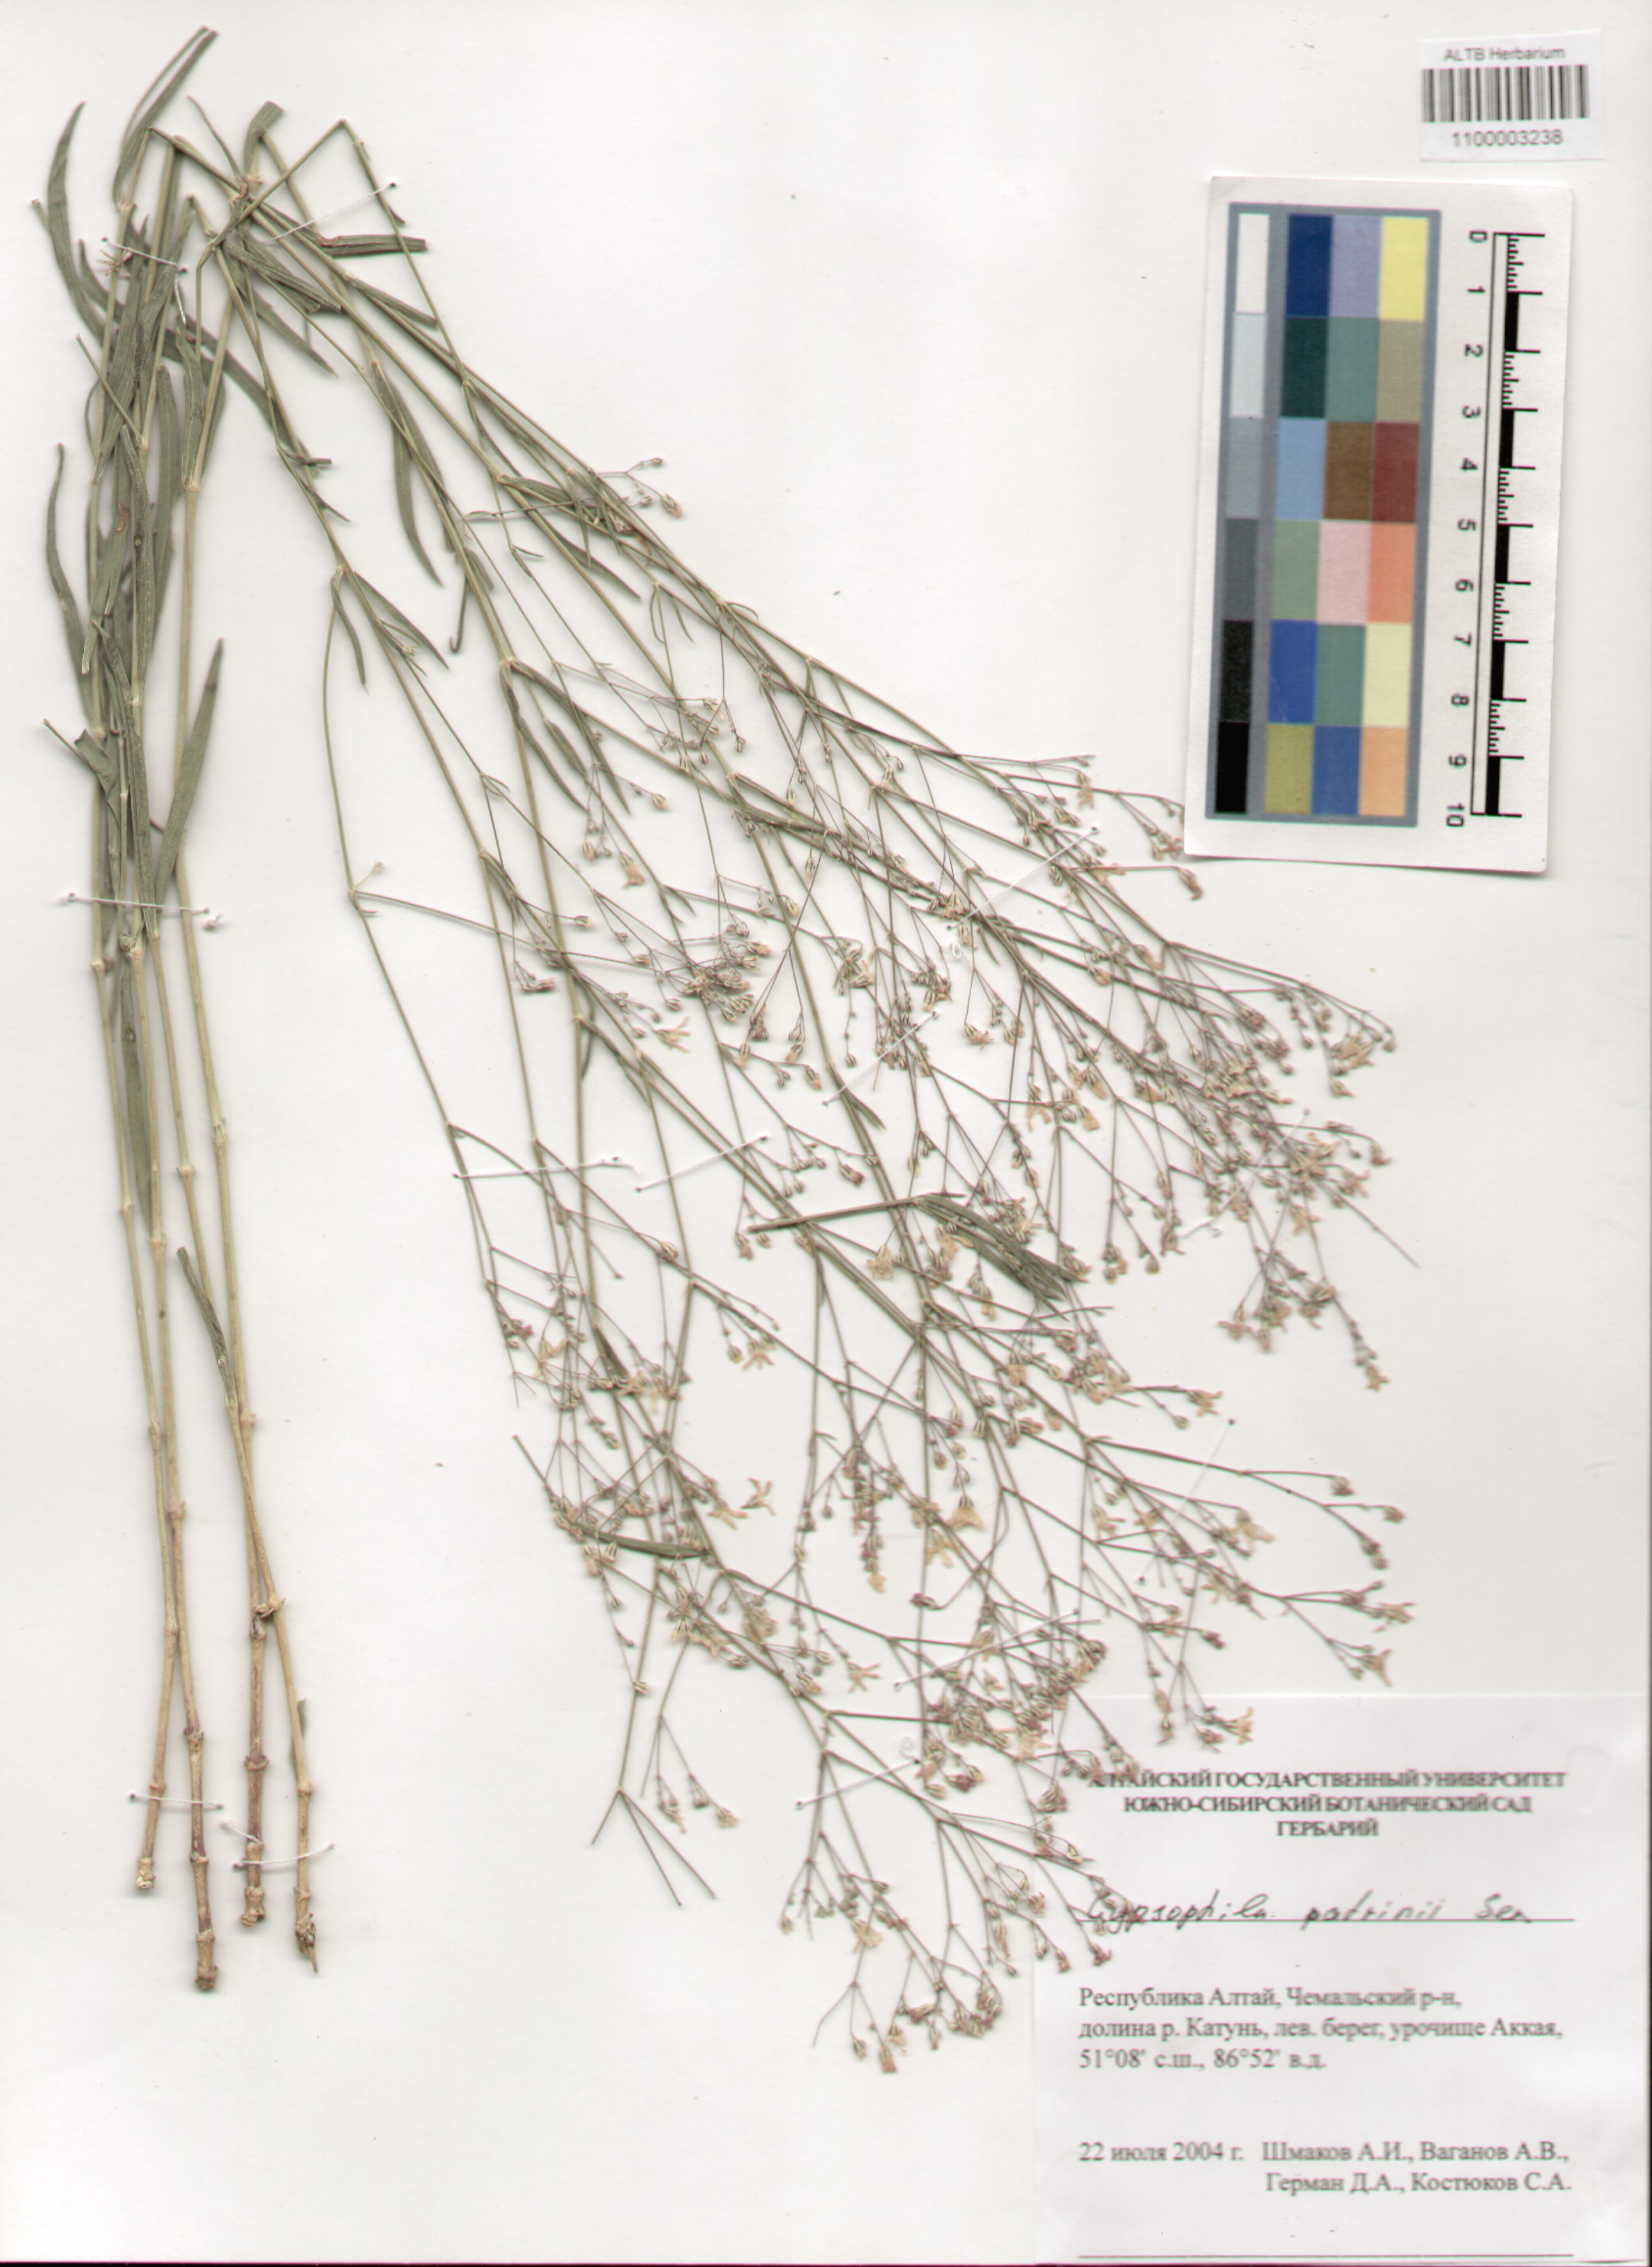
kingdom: Plantae
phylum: Tracheophyta
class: Magnoliopsida
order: Caryophyllales
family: Caryophyllaceae
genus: Gypsophila
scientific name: Gypsophila patrinii
